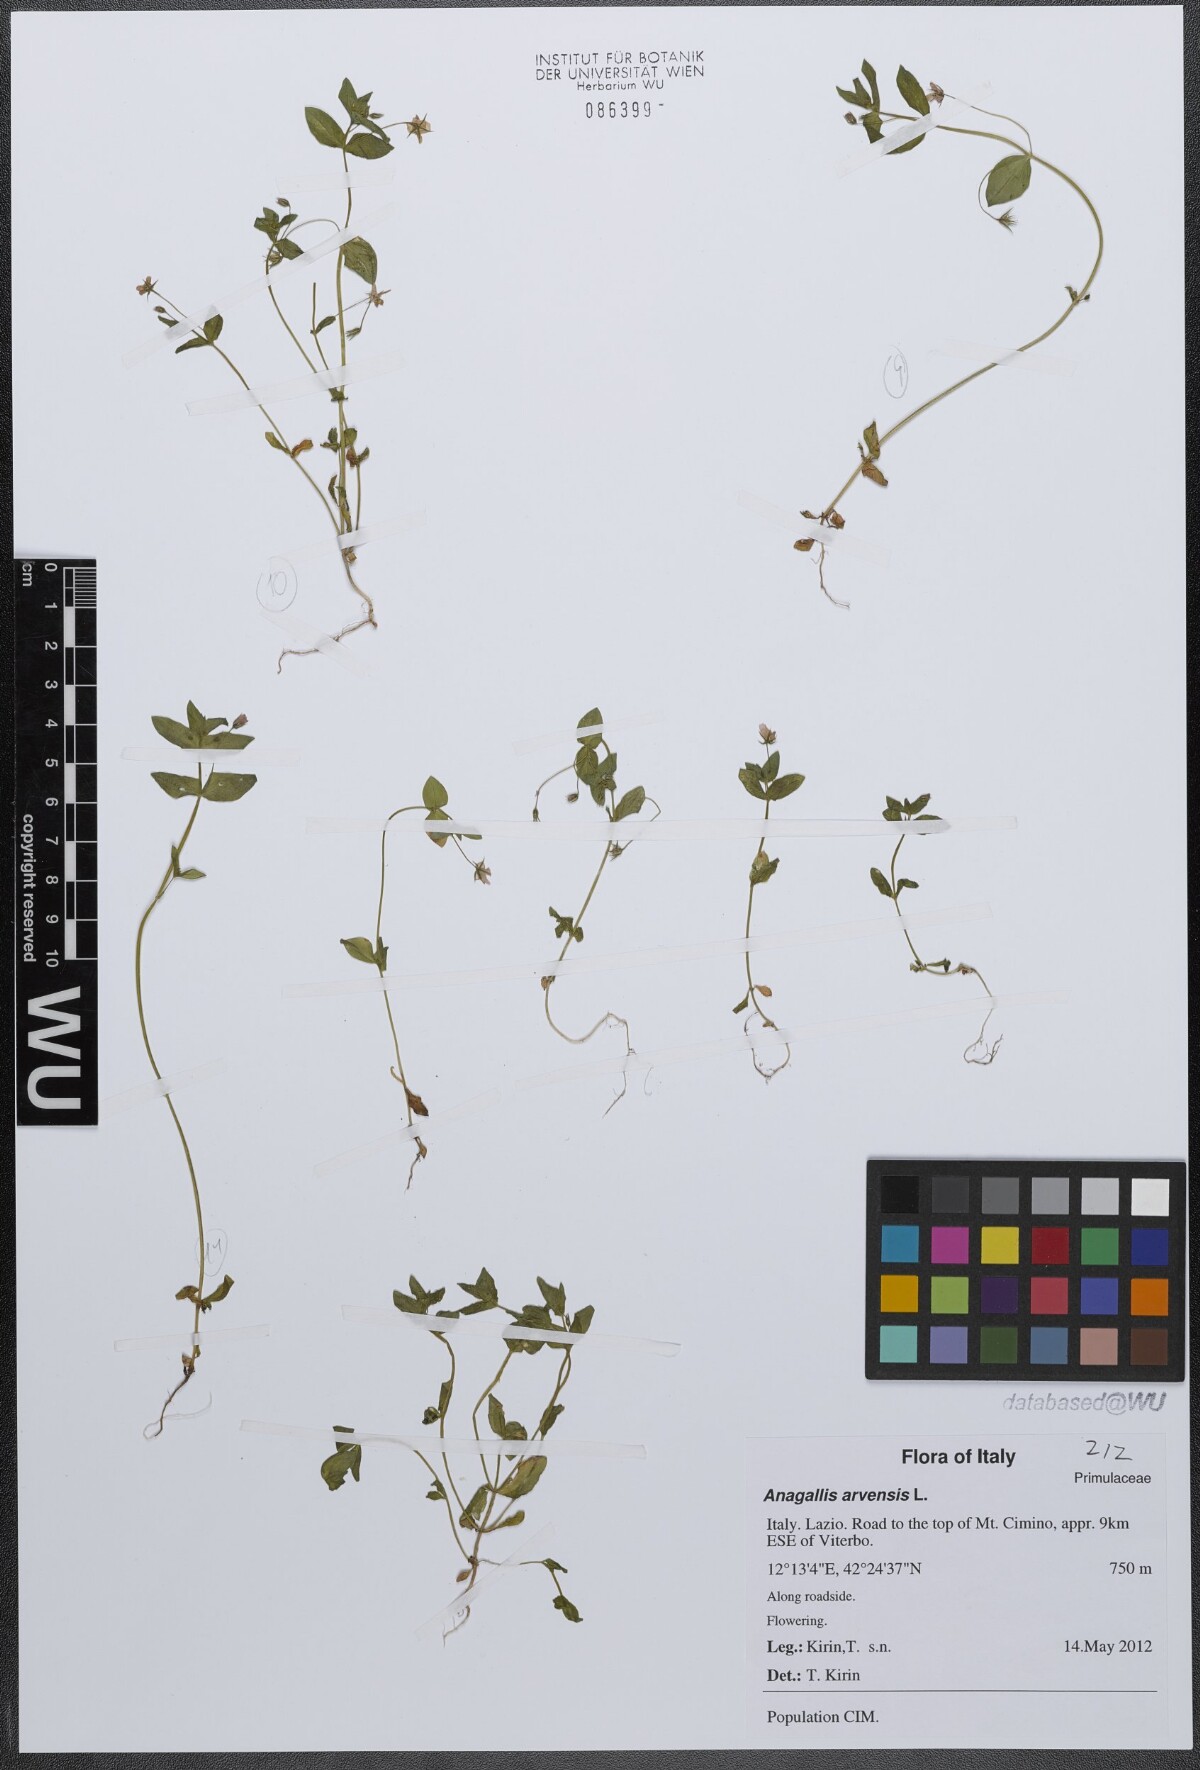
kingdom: Plantae
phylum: Tracheophyta
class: Magnoliopsida
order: Ericales
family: Primulaceae
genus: Lysimachia
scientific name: Lysimachia arvensis
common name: Scarlet pimpernel
